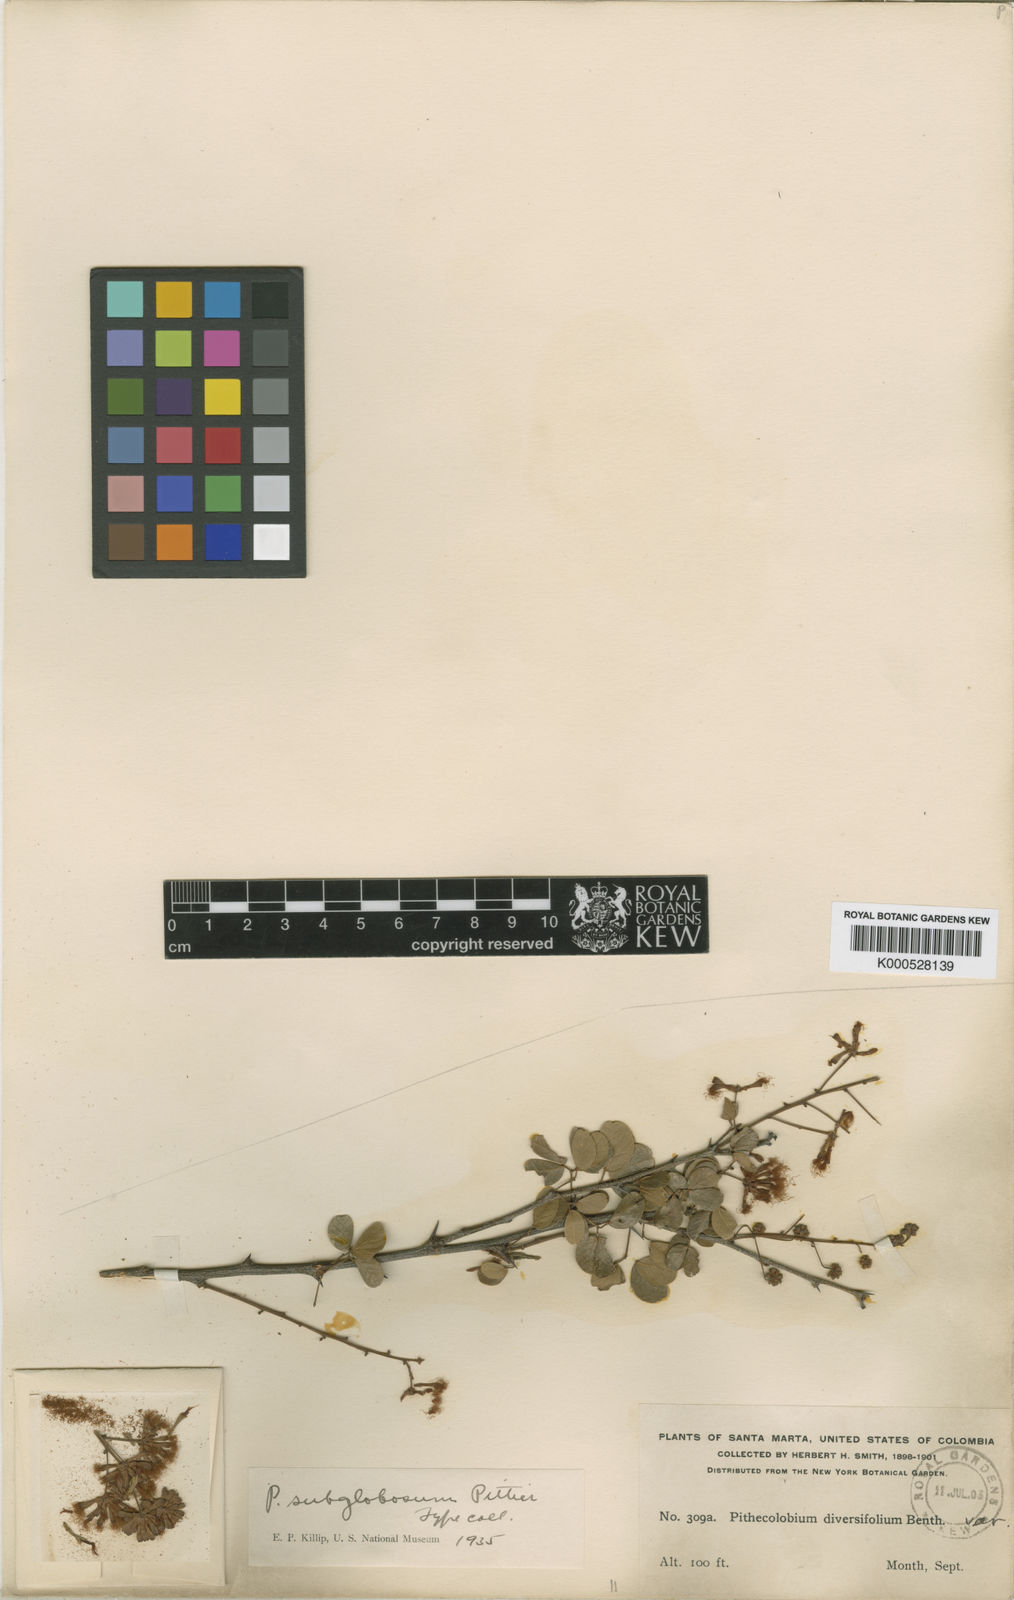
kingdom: Plantae
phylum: Tracheophyta
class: Magnoliopsida
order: Fabales
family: Fabaceae
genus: Pithecellobium
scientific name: Pithecellobium subglobosum
